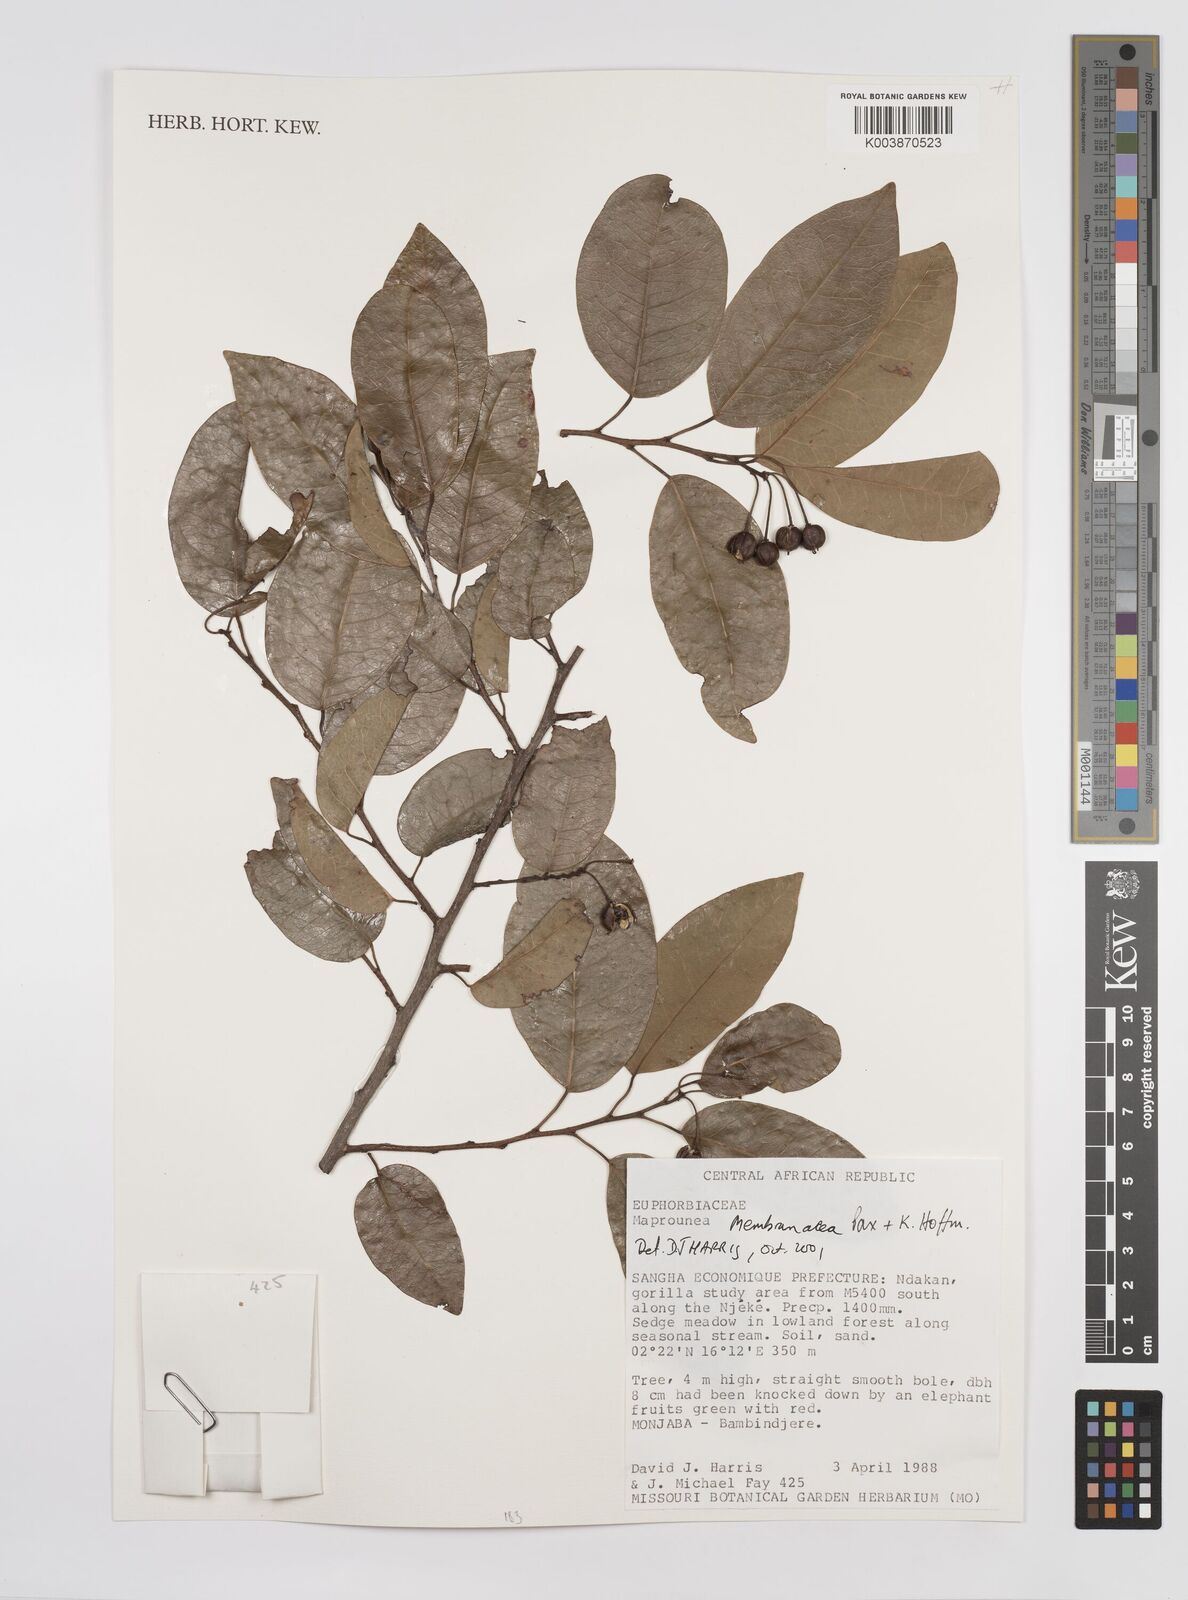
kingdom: Plantae
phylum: Tracheophyta
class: Magnoliopsida
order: Malpighiales
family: Euphorbiaceae
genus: Maprounea
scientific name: Maprounea membranacea
